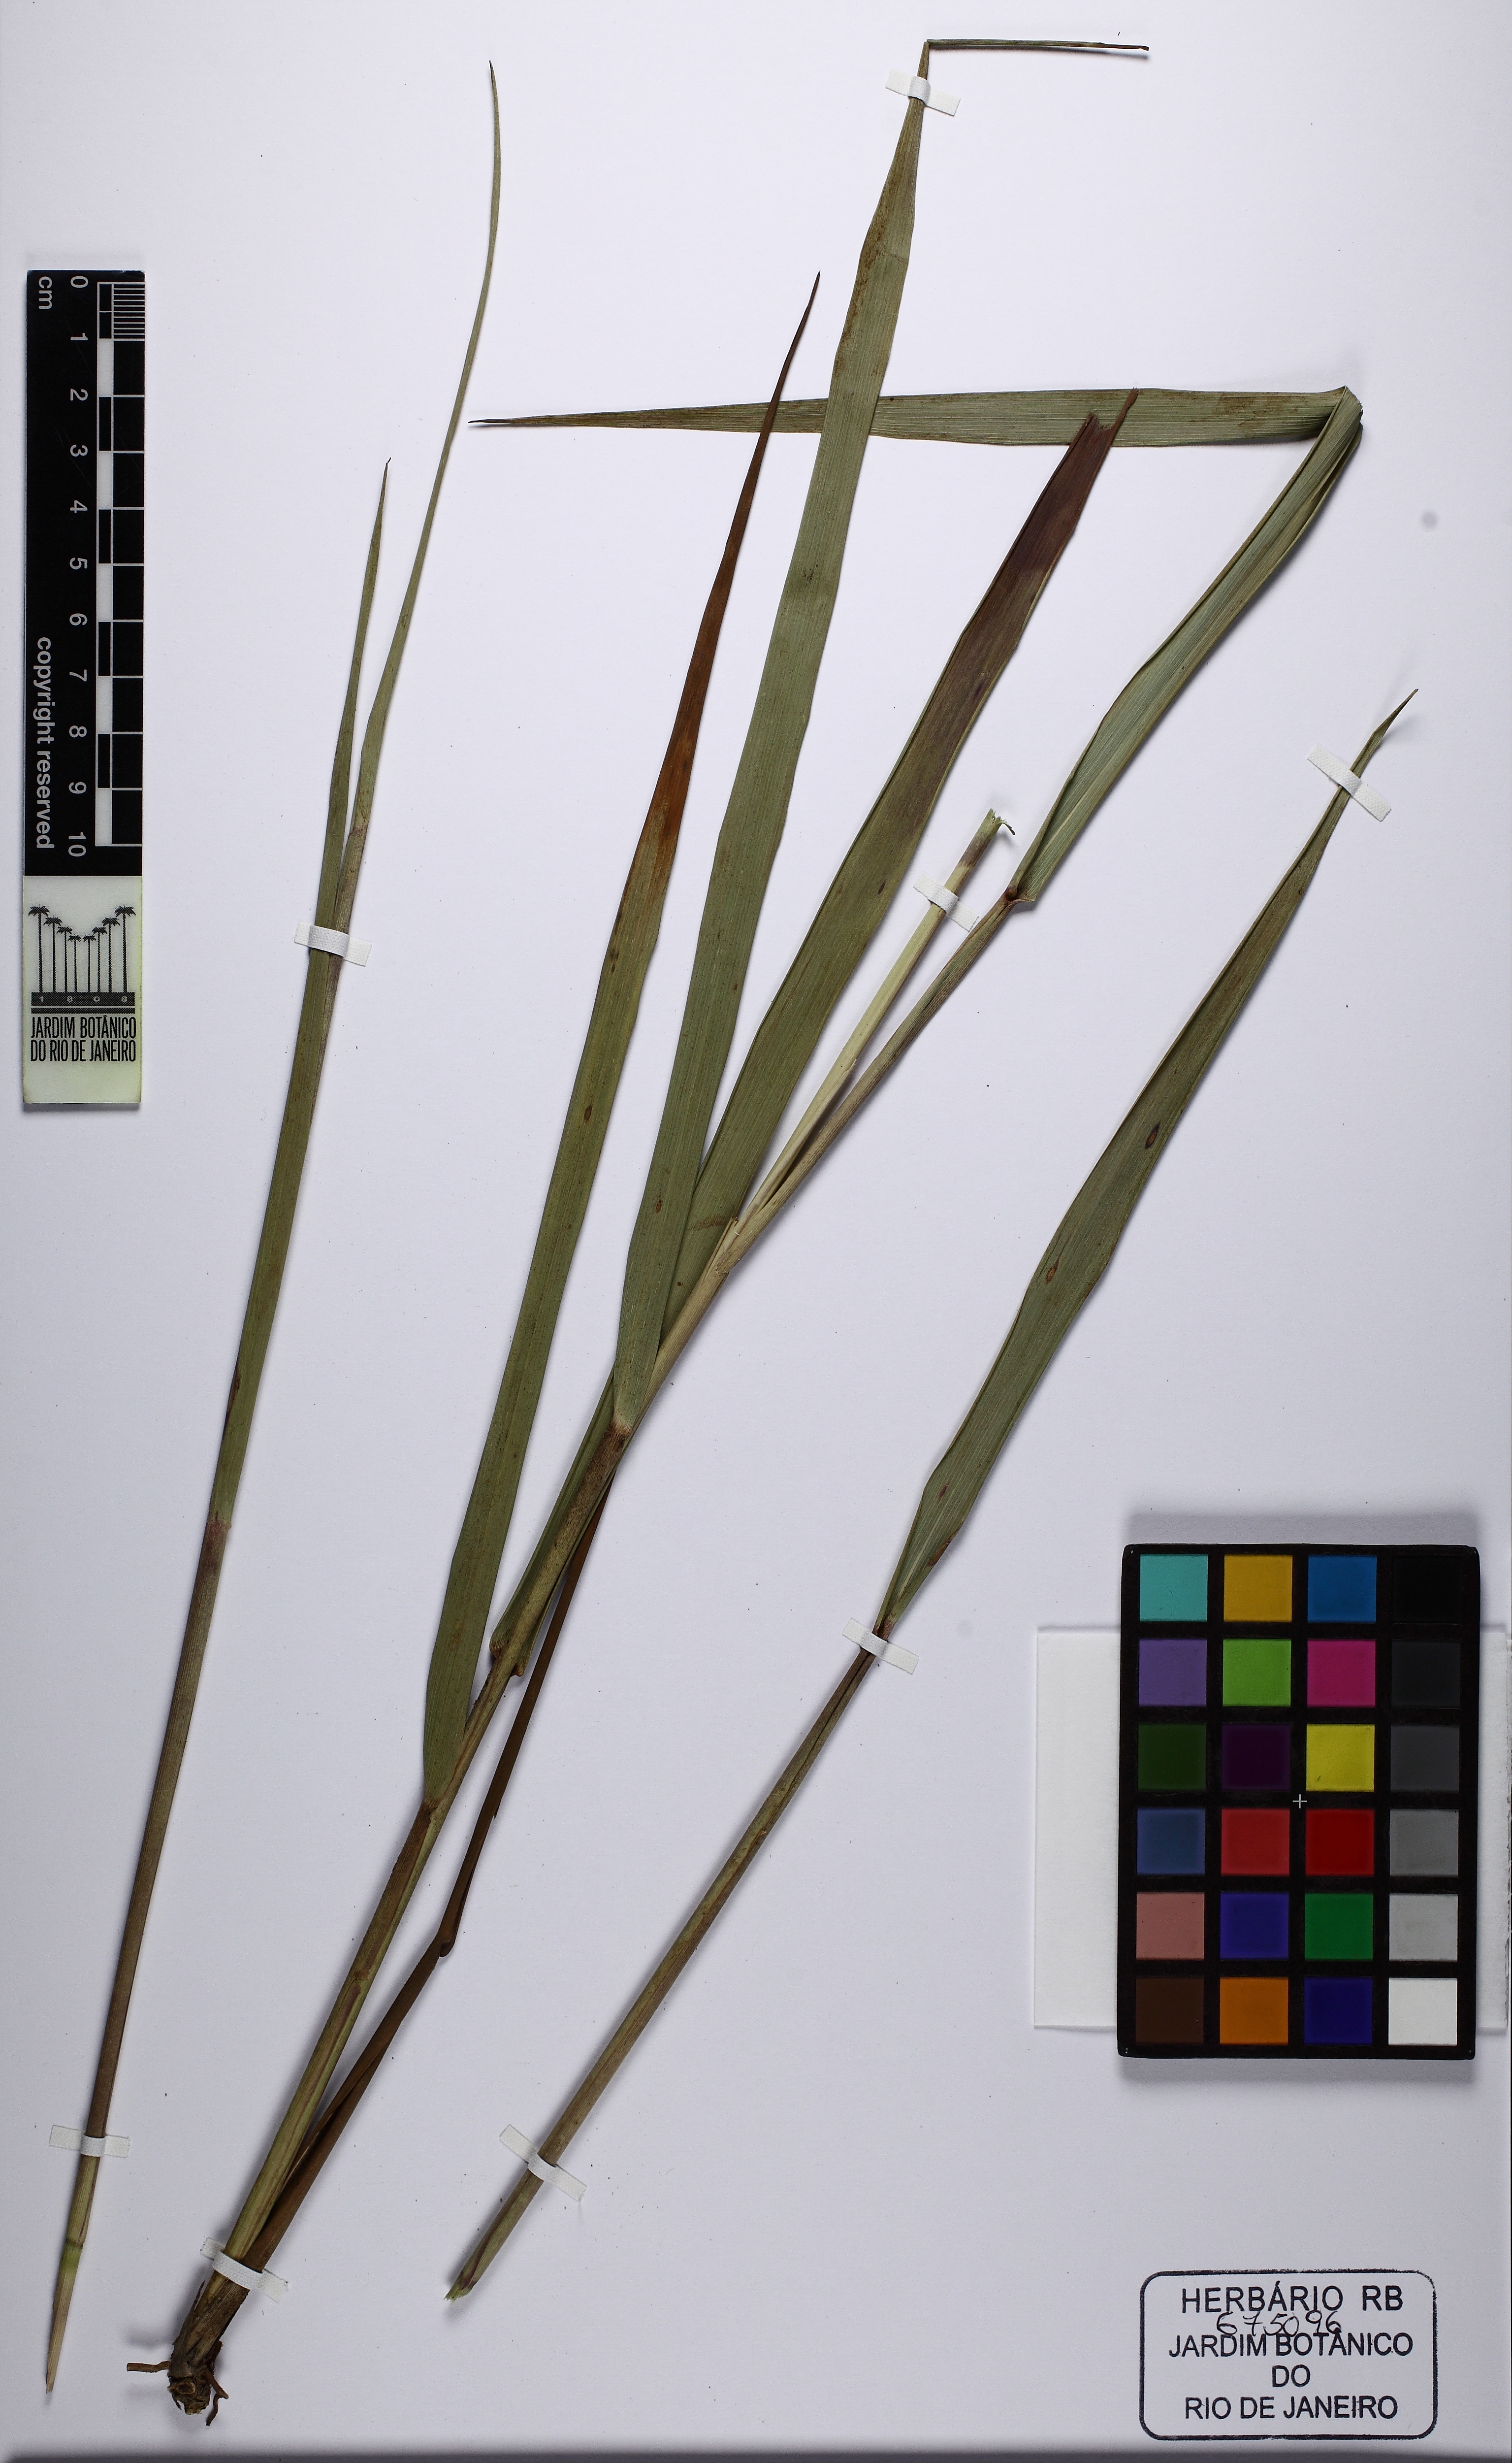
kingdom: Plantae
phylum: Tracheophyta
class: Liliopsida
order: Poales
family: Poaceae
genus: Panicum
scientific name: Panicum cervicatum
